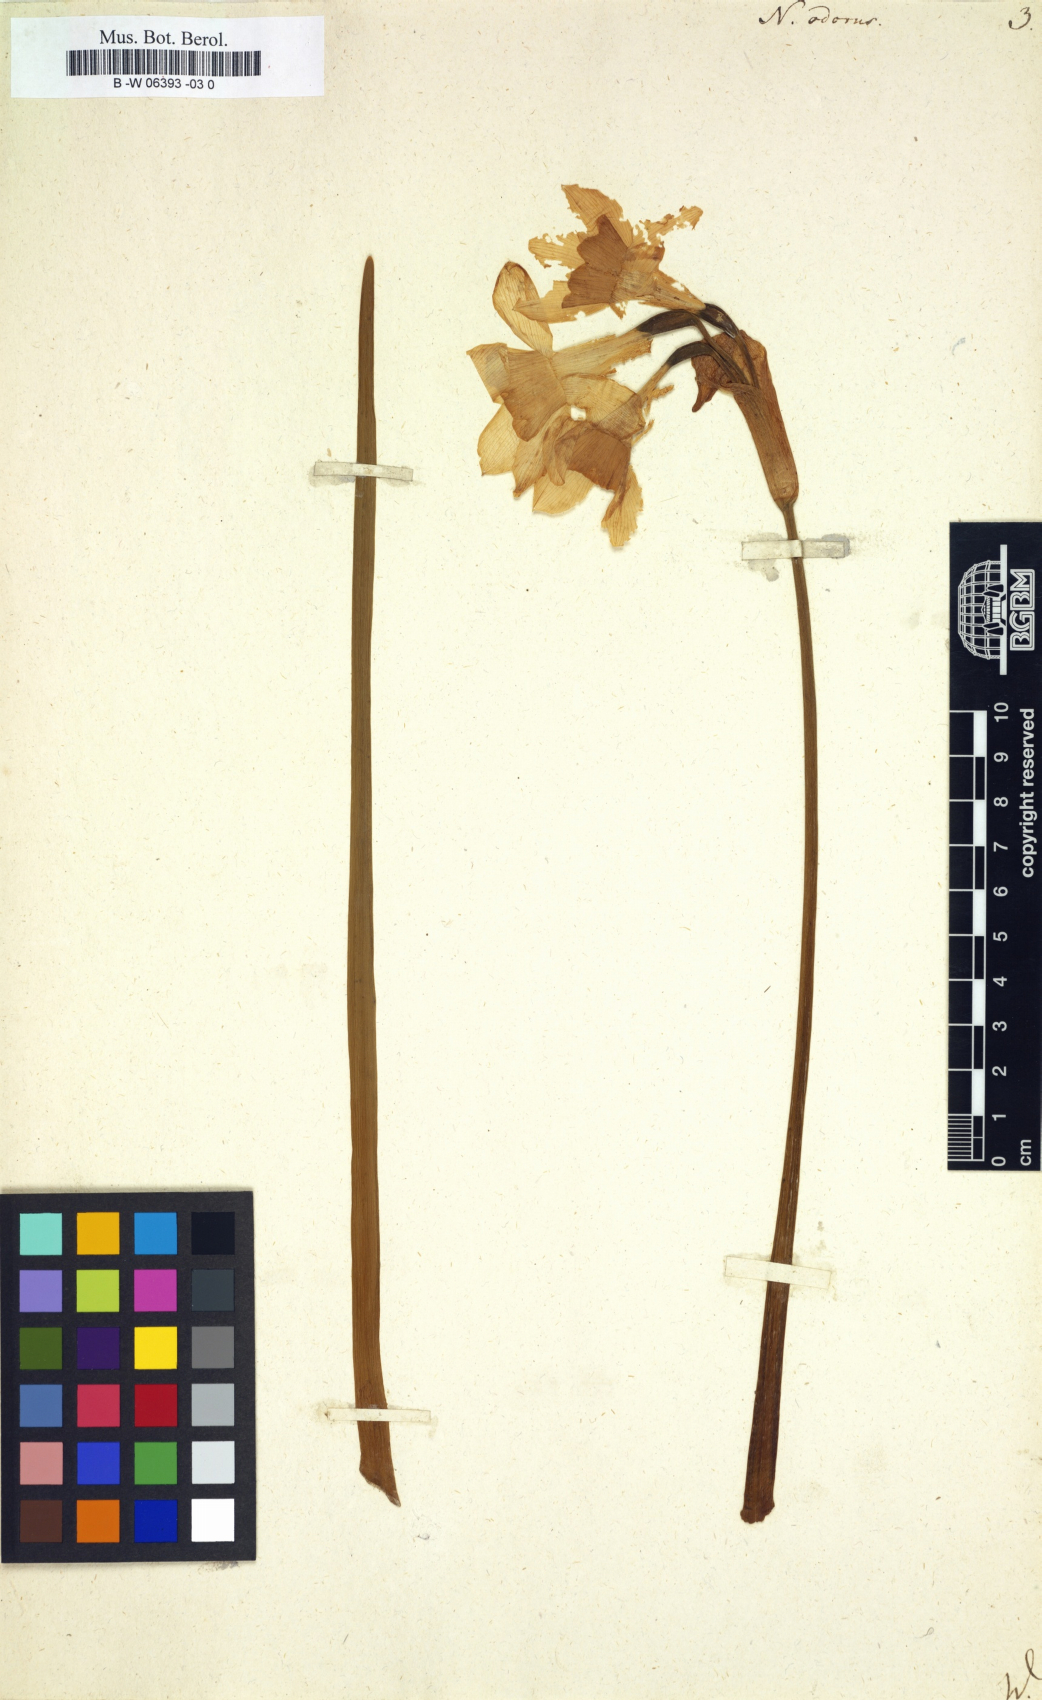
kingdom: Plantae
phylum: Tracheophyta
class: Liliopsida
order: Asparagales
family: Amaryllidaceae
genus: Narcissus
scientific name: Narcissus odorus
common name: Campernelle jonquil
